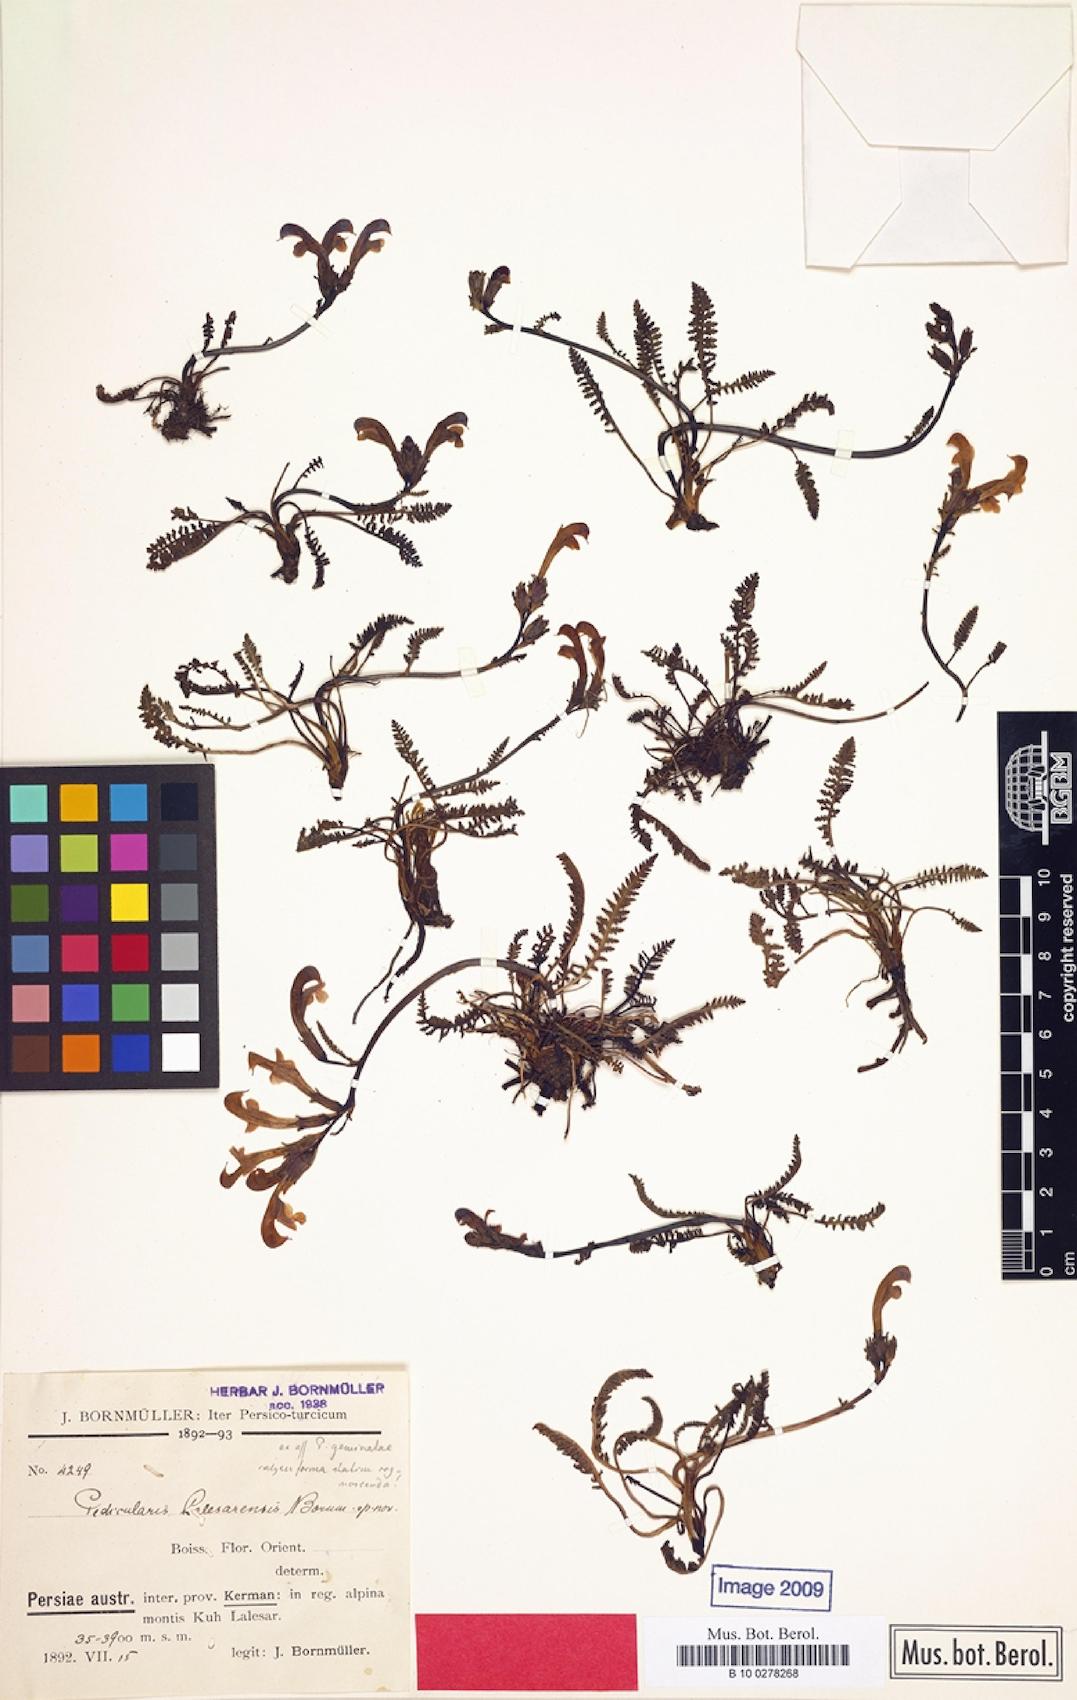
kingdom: Plantae
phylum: Tracheophyta
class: Magnoliopsida
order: Lamiales
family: Orobanchaceae
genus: Pedicularis
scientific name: Pedicularis cabulica
